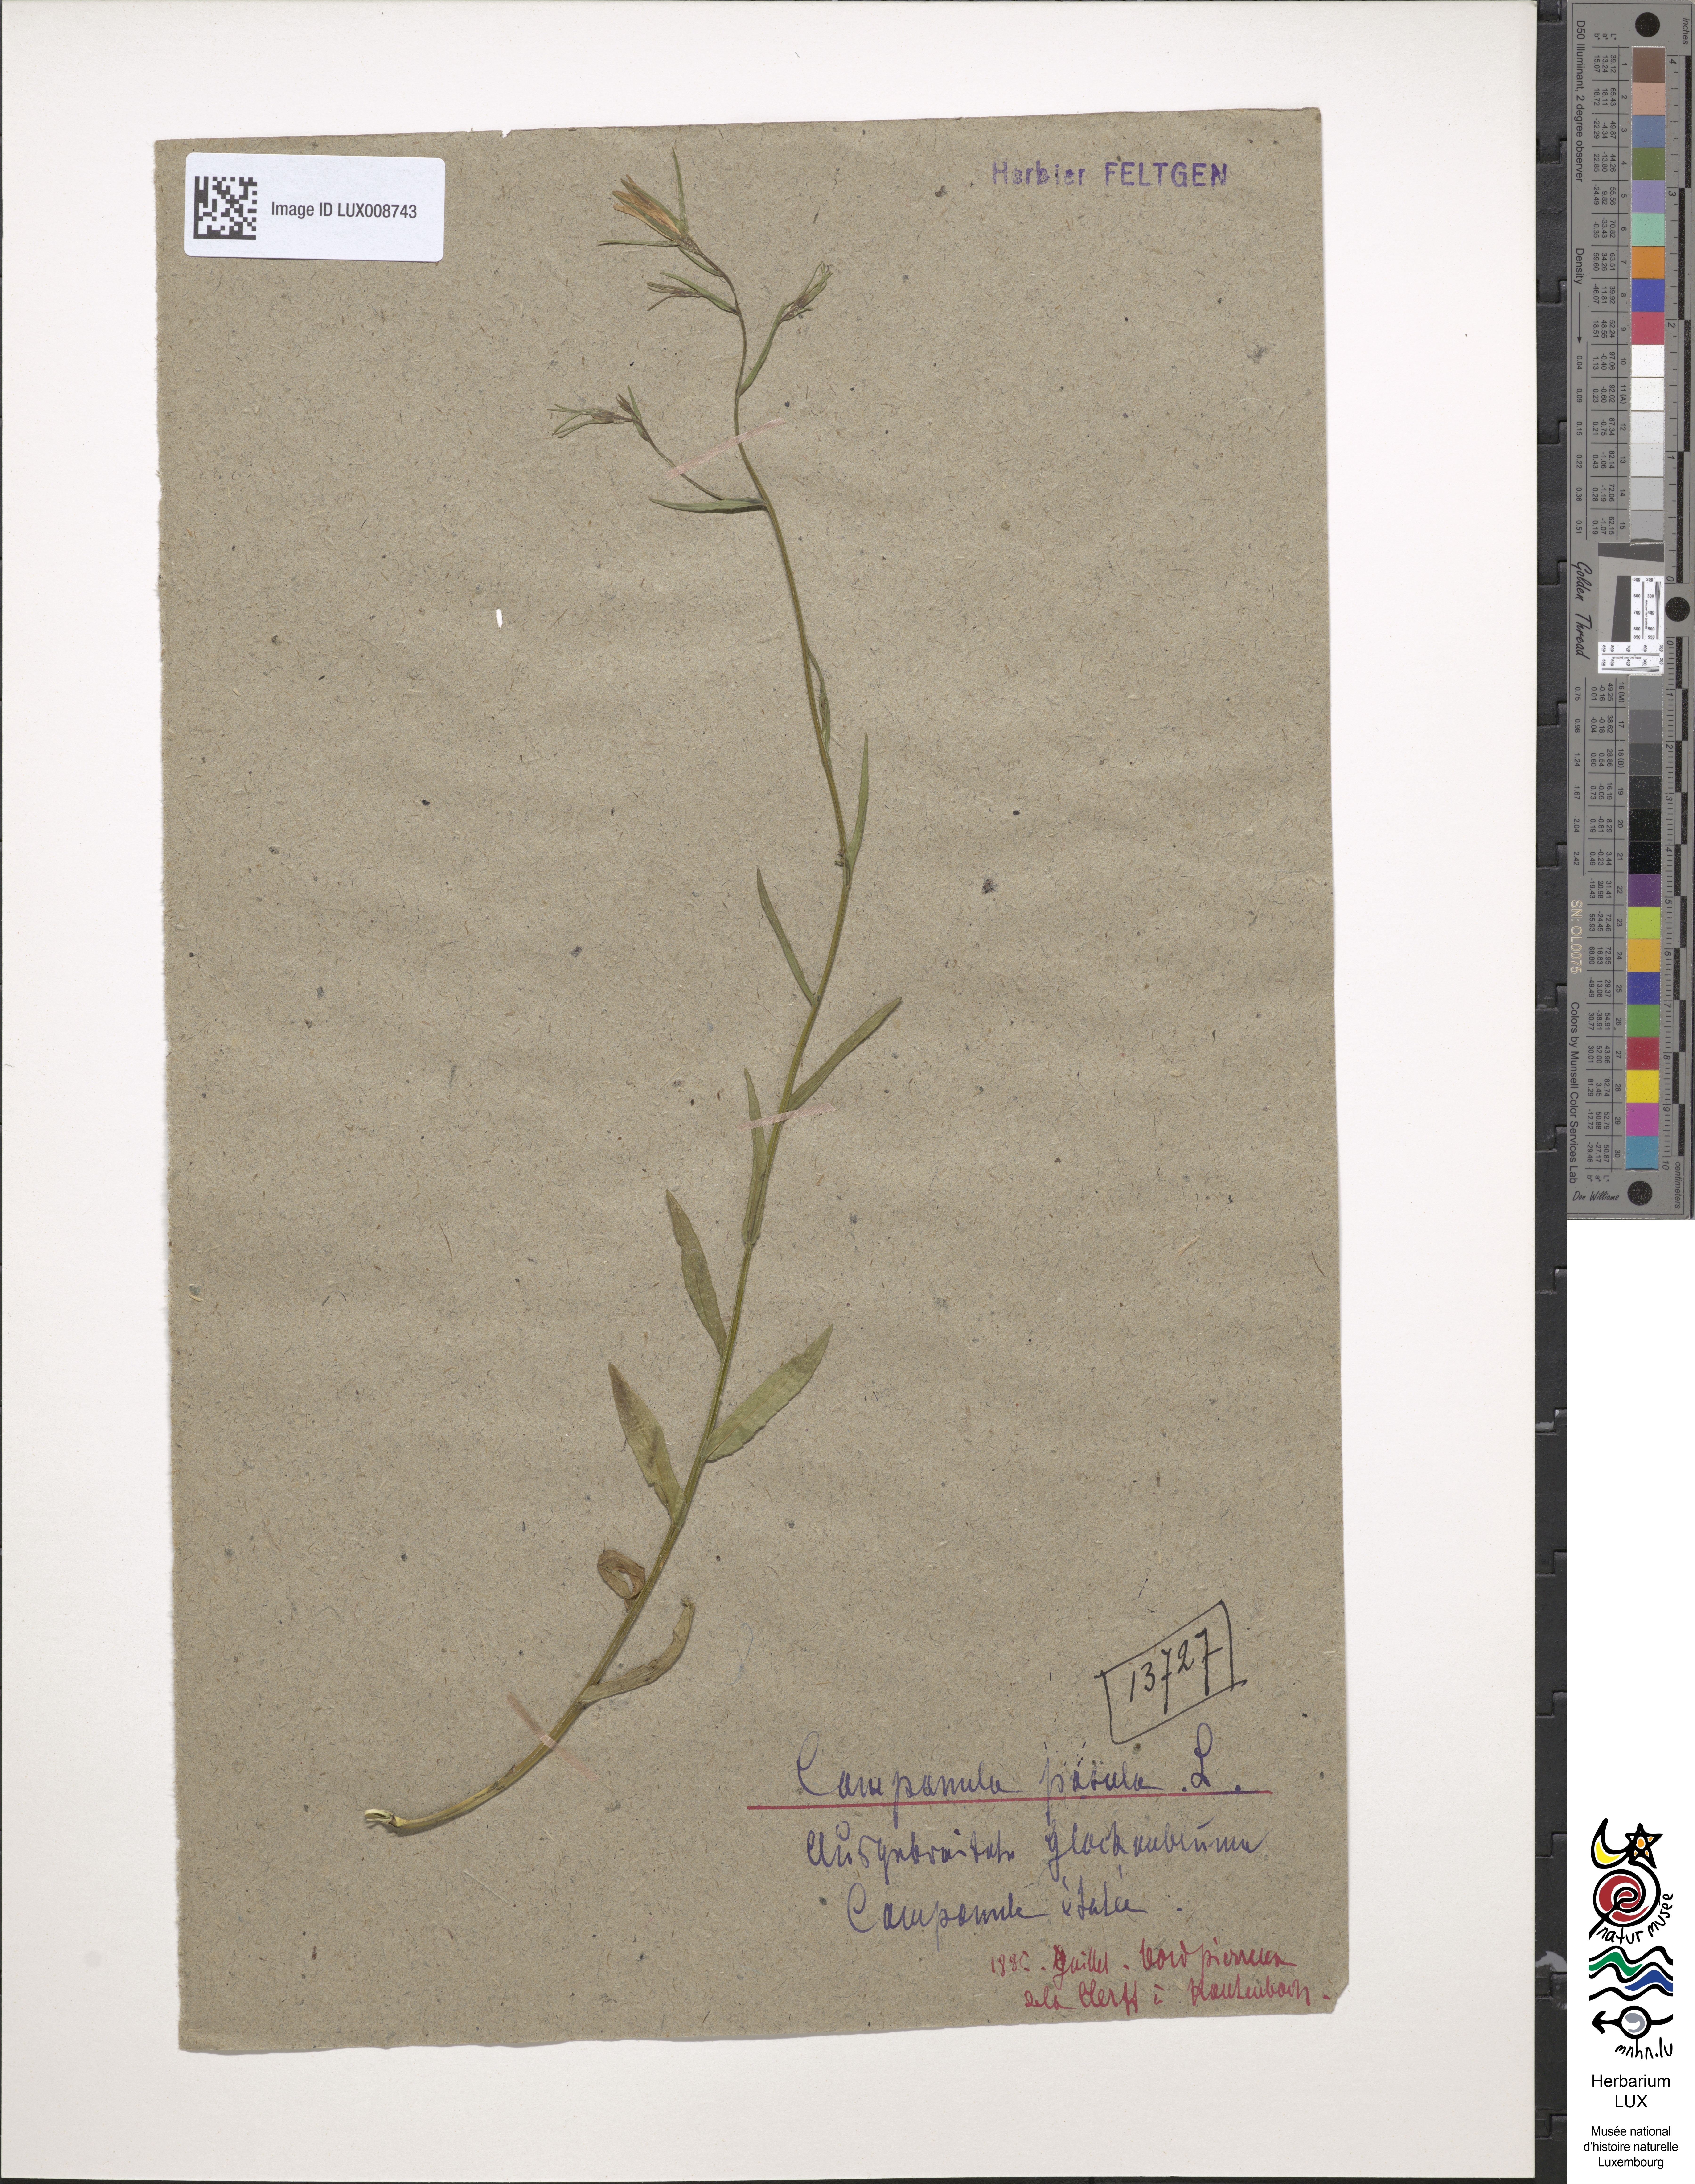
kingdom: Plantae
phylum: Tracheophyta
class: Magnoliopsida
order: Asterales
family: Campanulaceae
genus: Campanula
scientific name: Campanula patula
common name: Spreading bellflower
